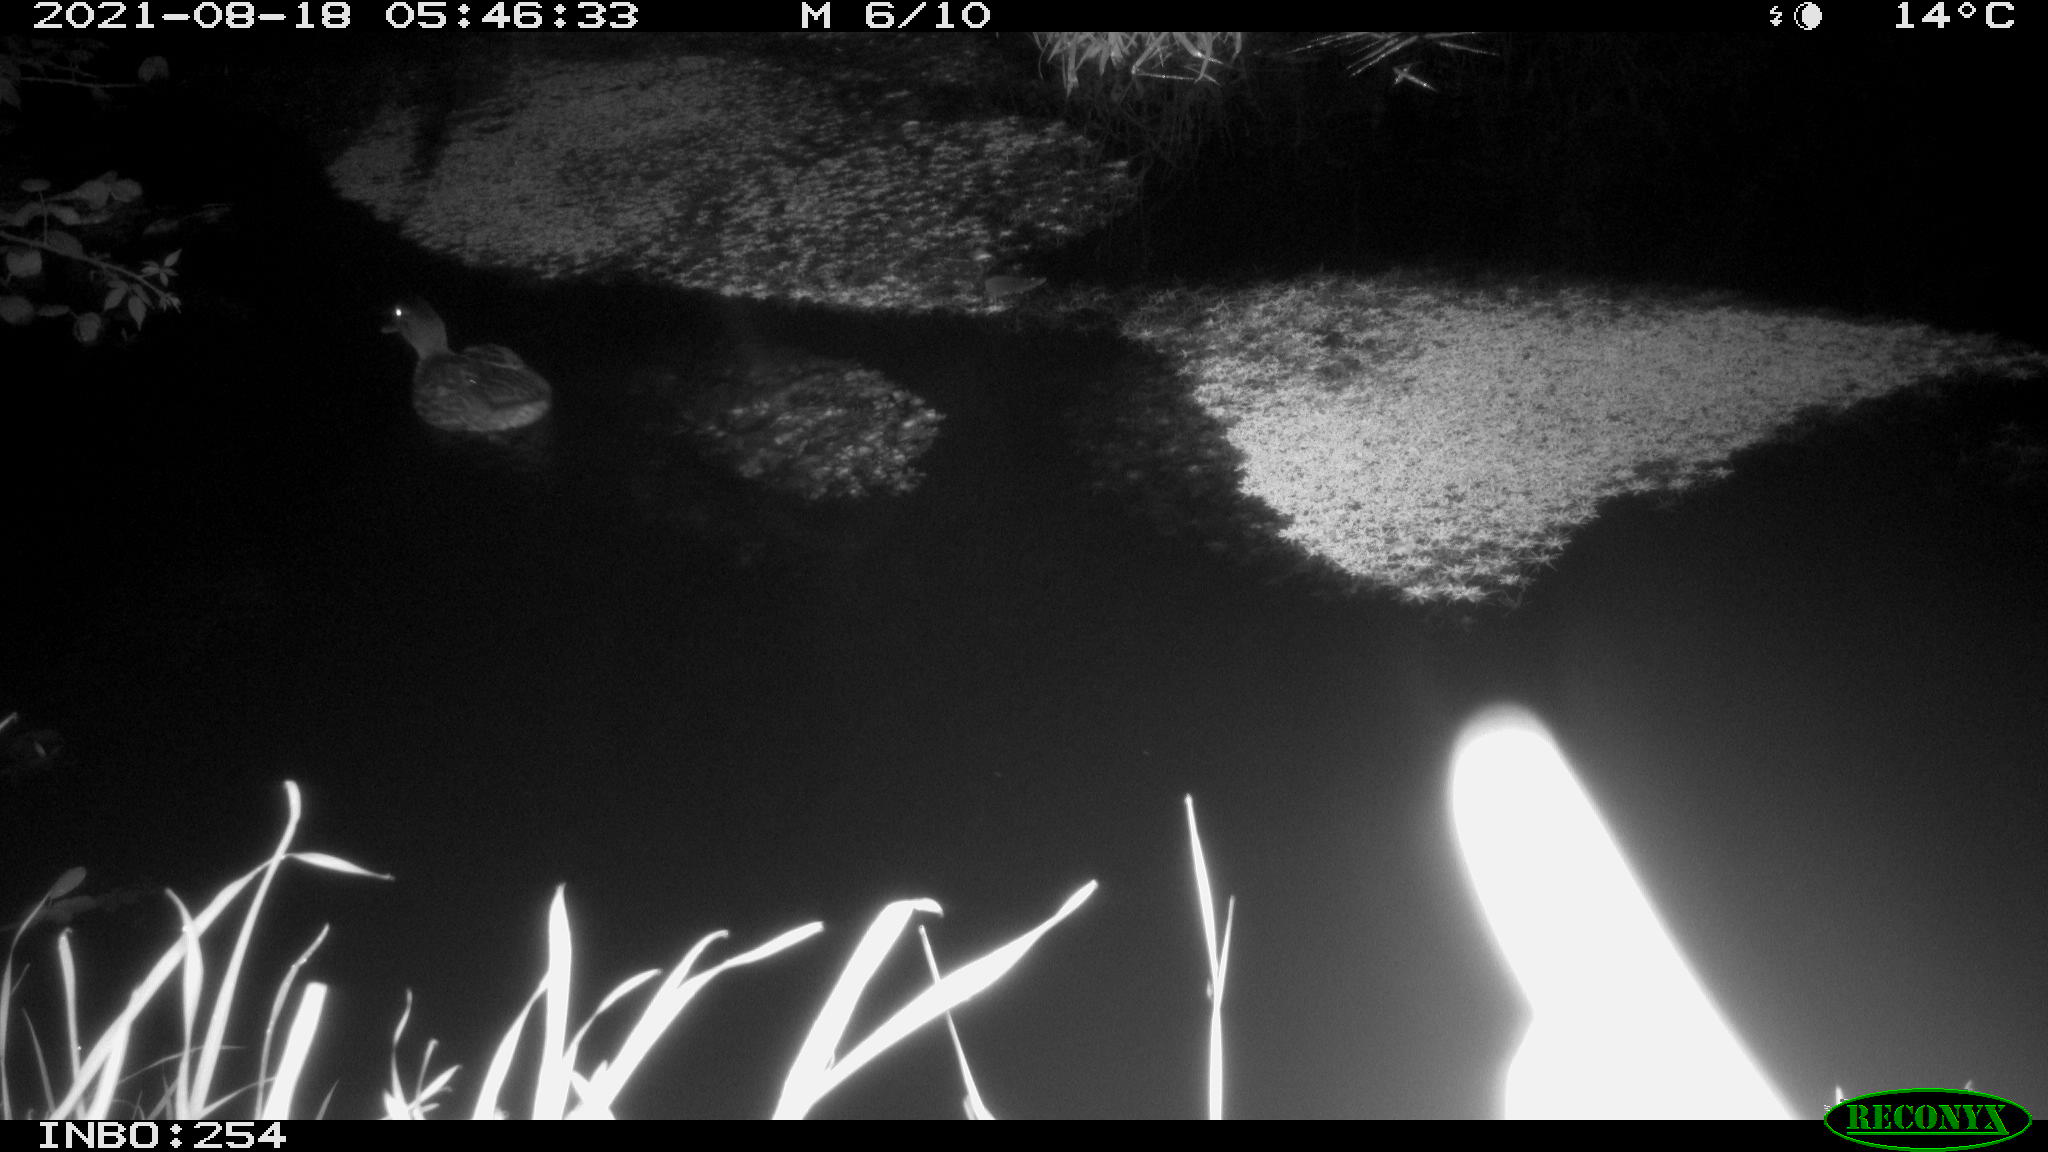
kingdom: Animalia
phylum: Chordata
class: Aves
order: Anseriformes
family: Anatidae
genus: Anas
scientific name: Anas platyrhynchos
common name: Mallard
